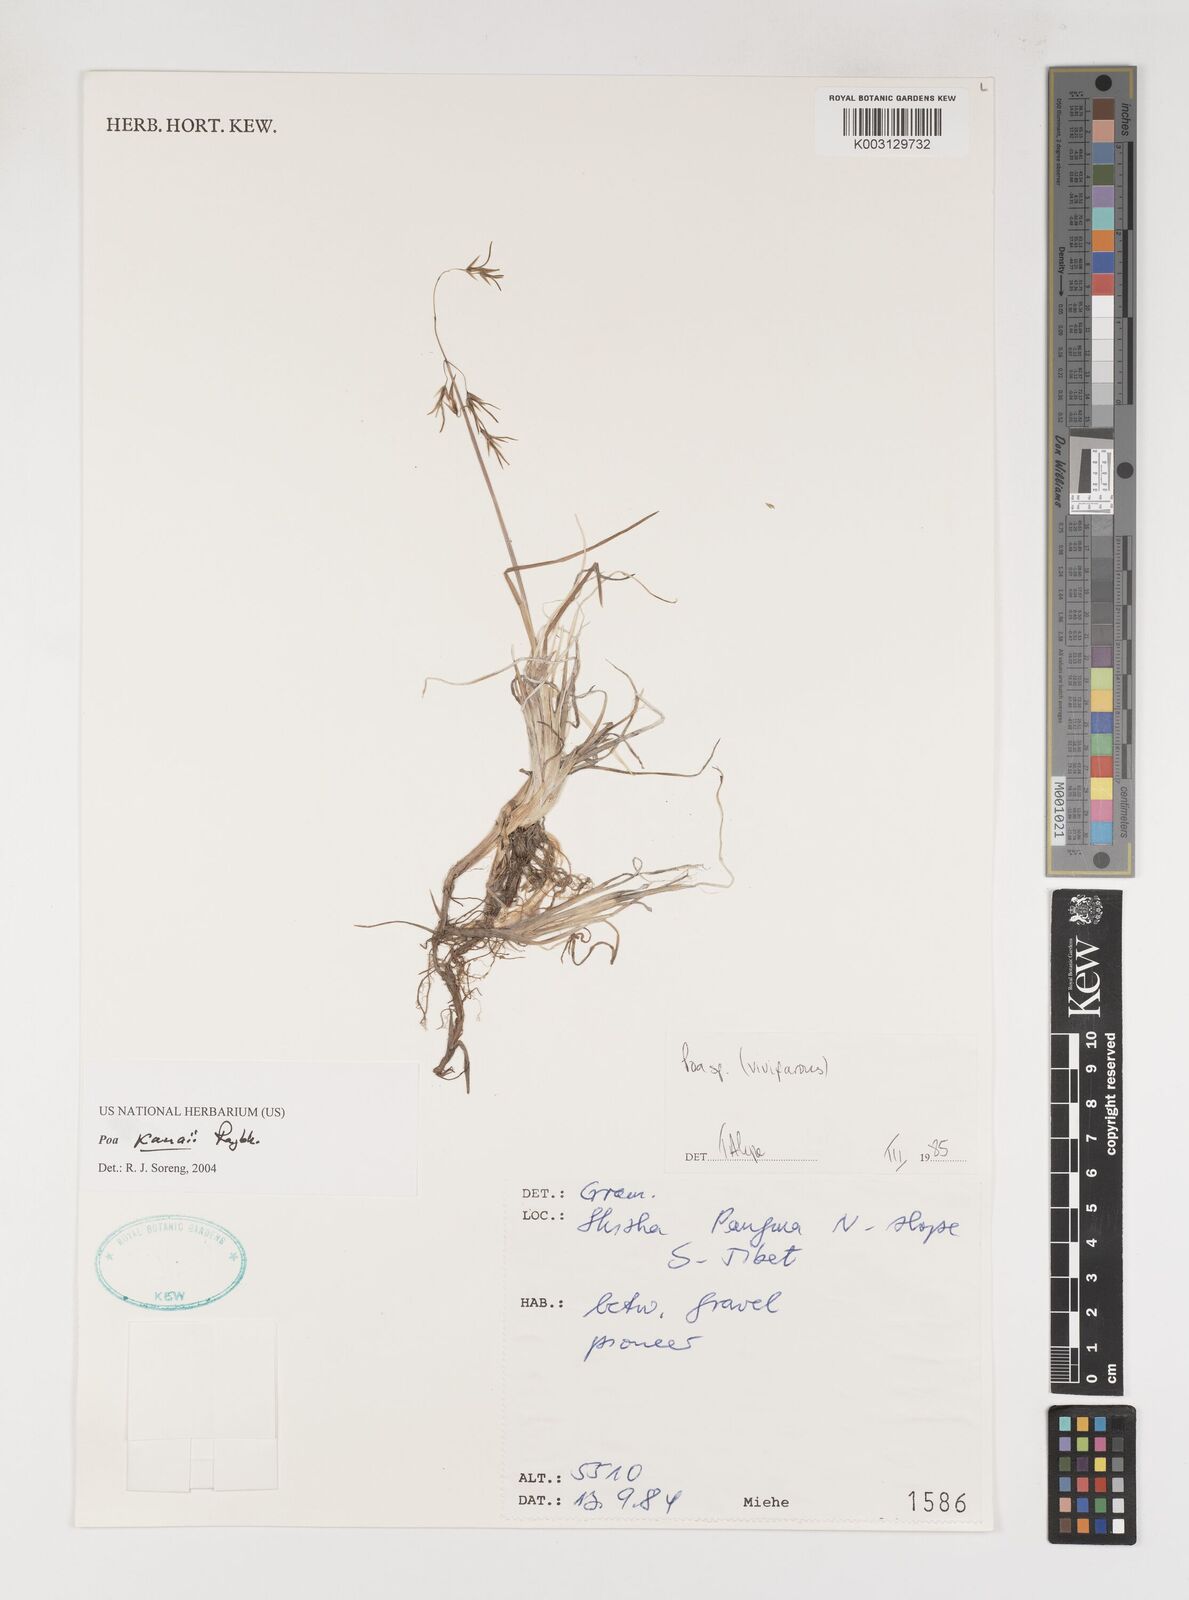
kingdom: Plantae
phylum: Tracheophyta
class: Liliopsida
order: Poales
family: Poaceae
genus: Poa
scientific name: Poa pagophila
